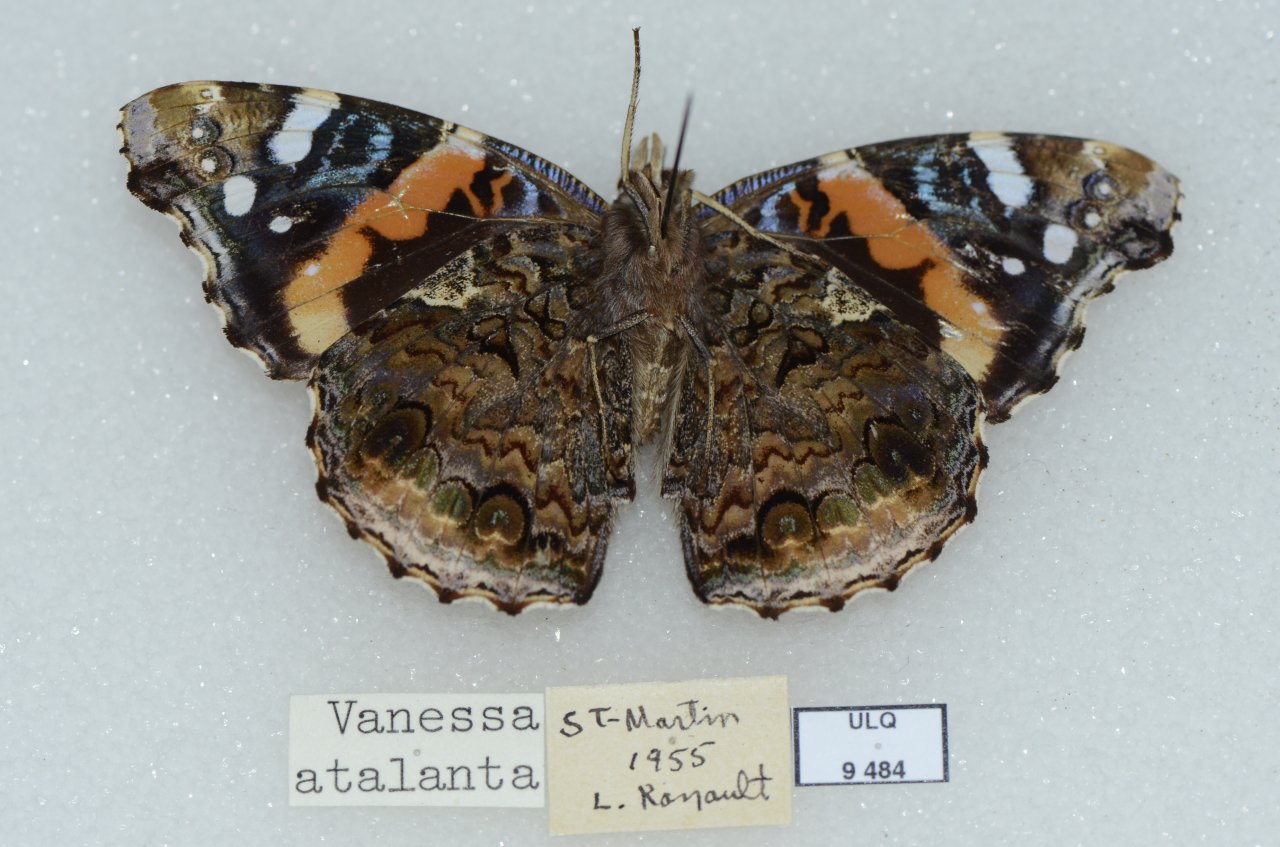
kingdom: Animalia
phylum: Arthropoda
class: Insecta
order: Lepidoptera
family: Nymphalidae
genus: Vanessa
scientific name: Vanessa atalanta
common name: Red Admiral
